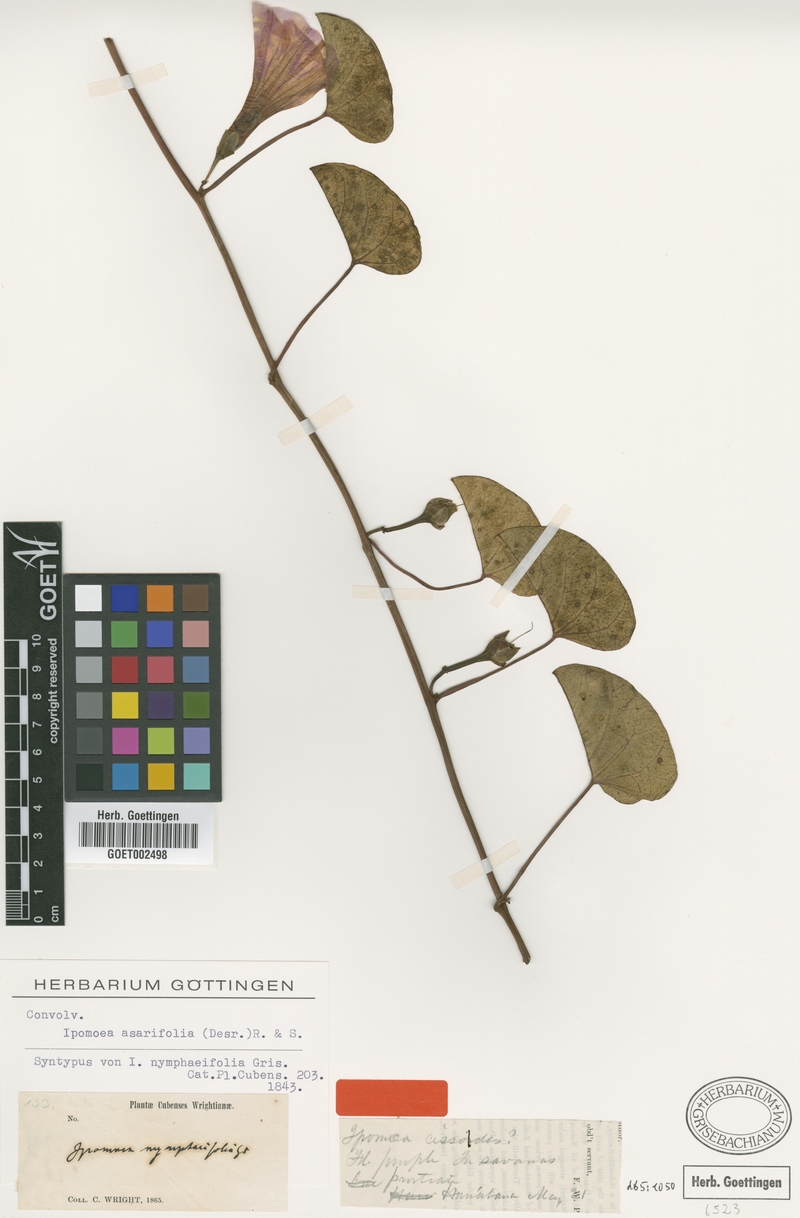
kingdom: Plantae
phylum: Tracheophyta
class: Magnoliopsida
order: Solanales
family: Convolvulaceae
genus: Ipomoea
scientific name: Ipomoea asarifolia
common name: Ginger-leaf morning-glory
